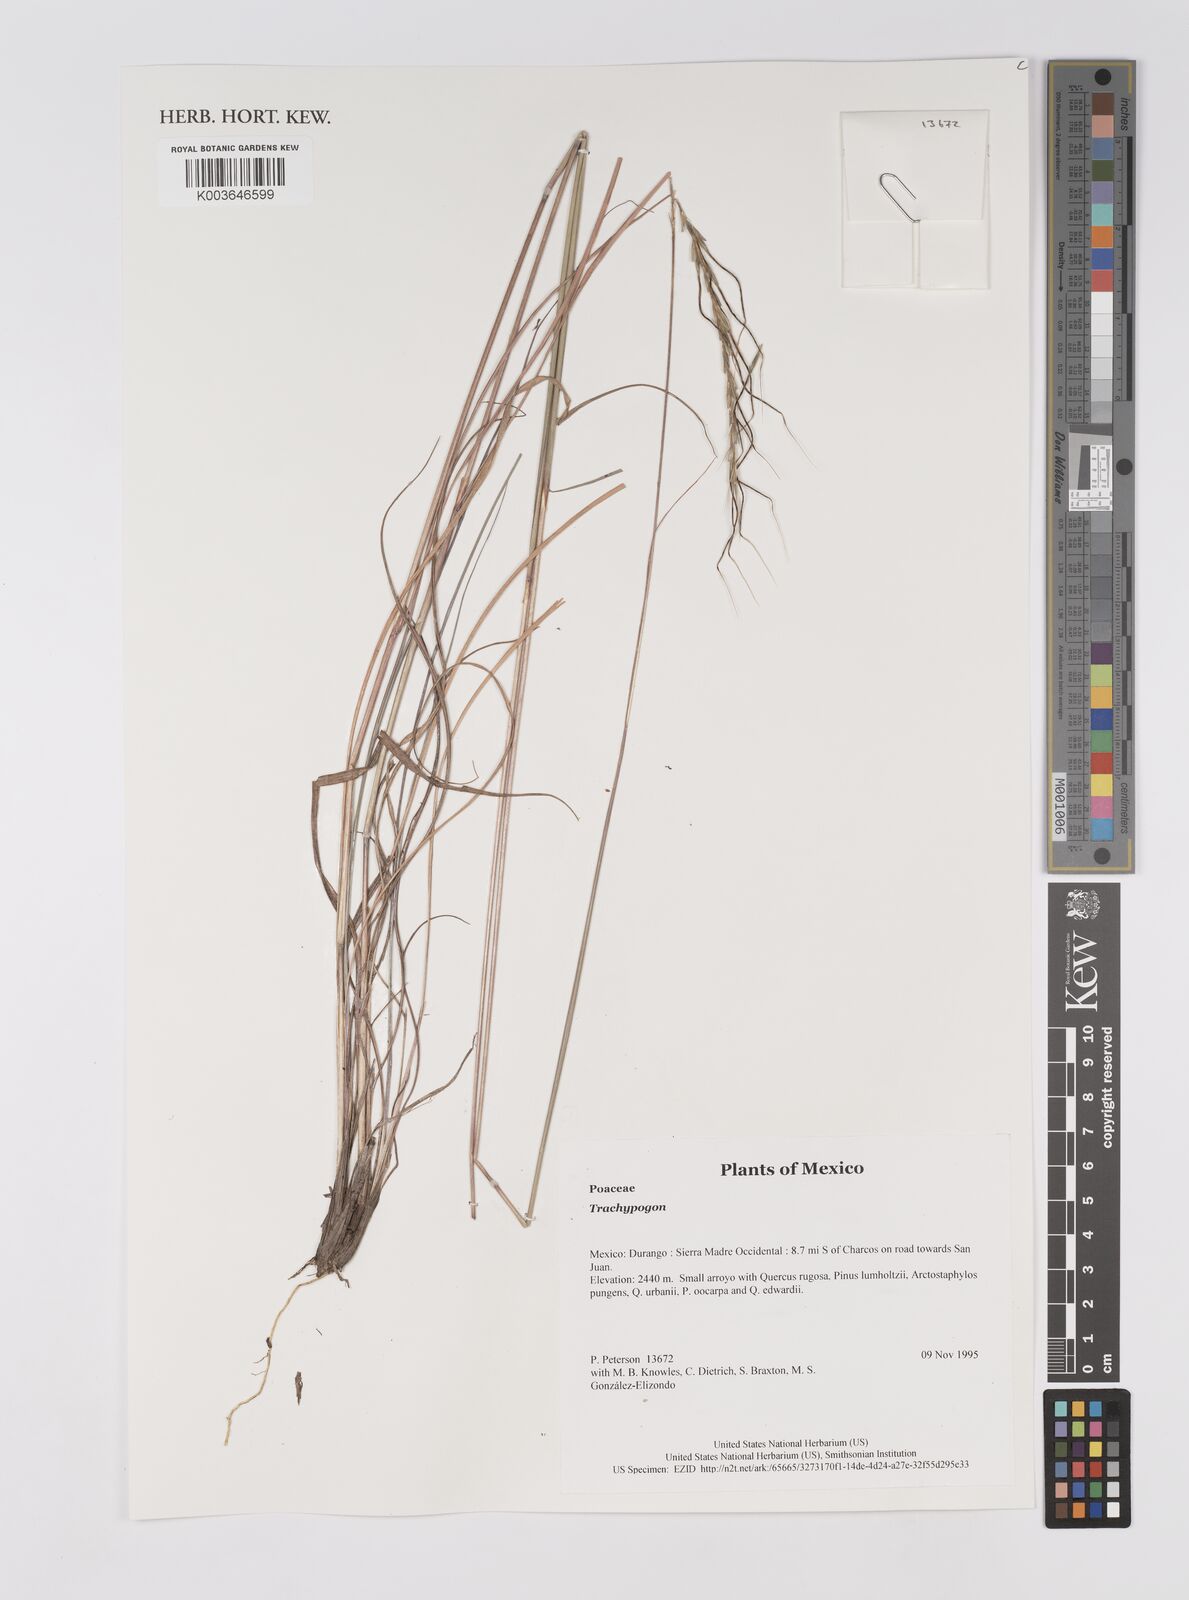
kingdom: Plantae
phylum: Tracheophyta
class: Liliopsida
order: Poales
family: Poaceae
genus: Trachypogon
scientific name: Trachypogon
